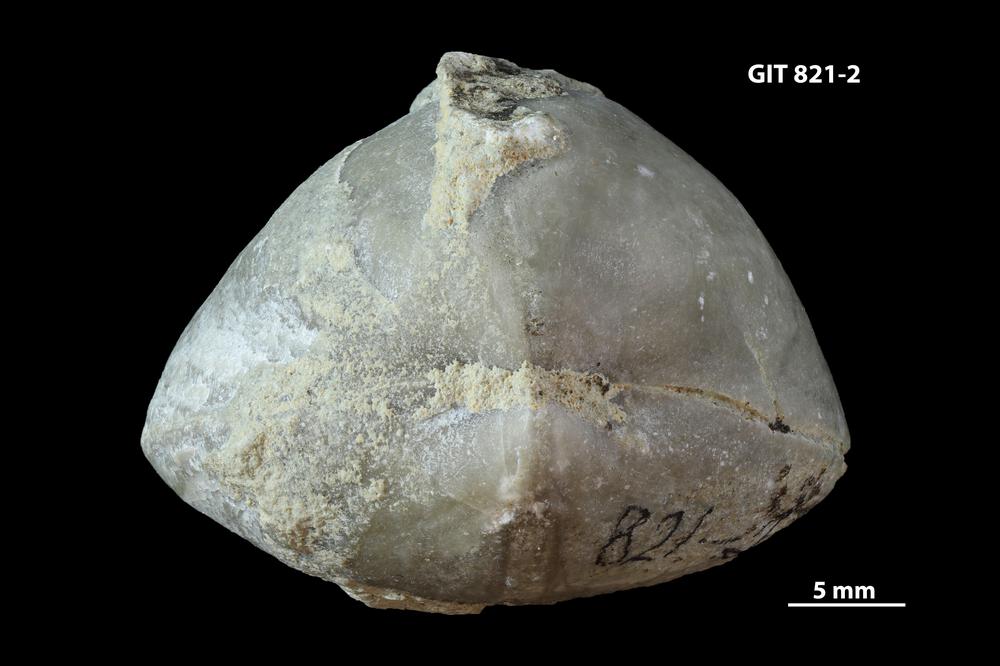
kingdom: Animalia
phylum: Brachiopoda
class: Rhynchonellata
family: Porambonitidae
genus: Eoporambonites
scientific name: Eoporambonites Porambonites latus
